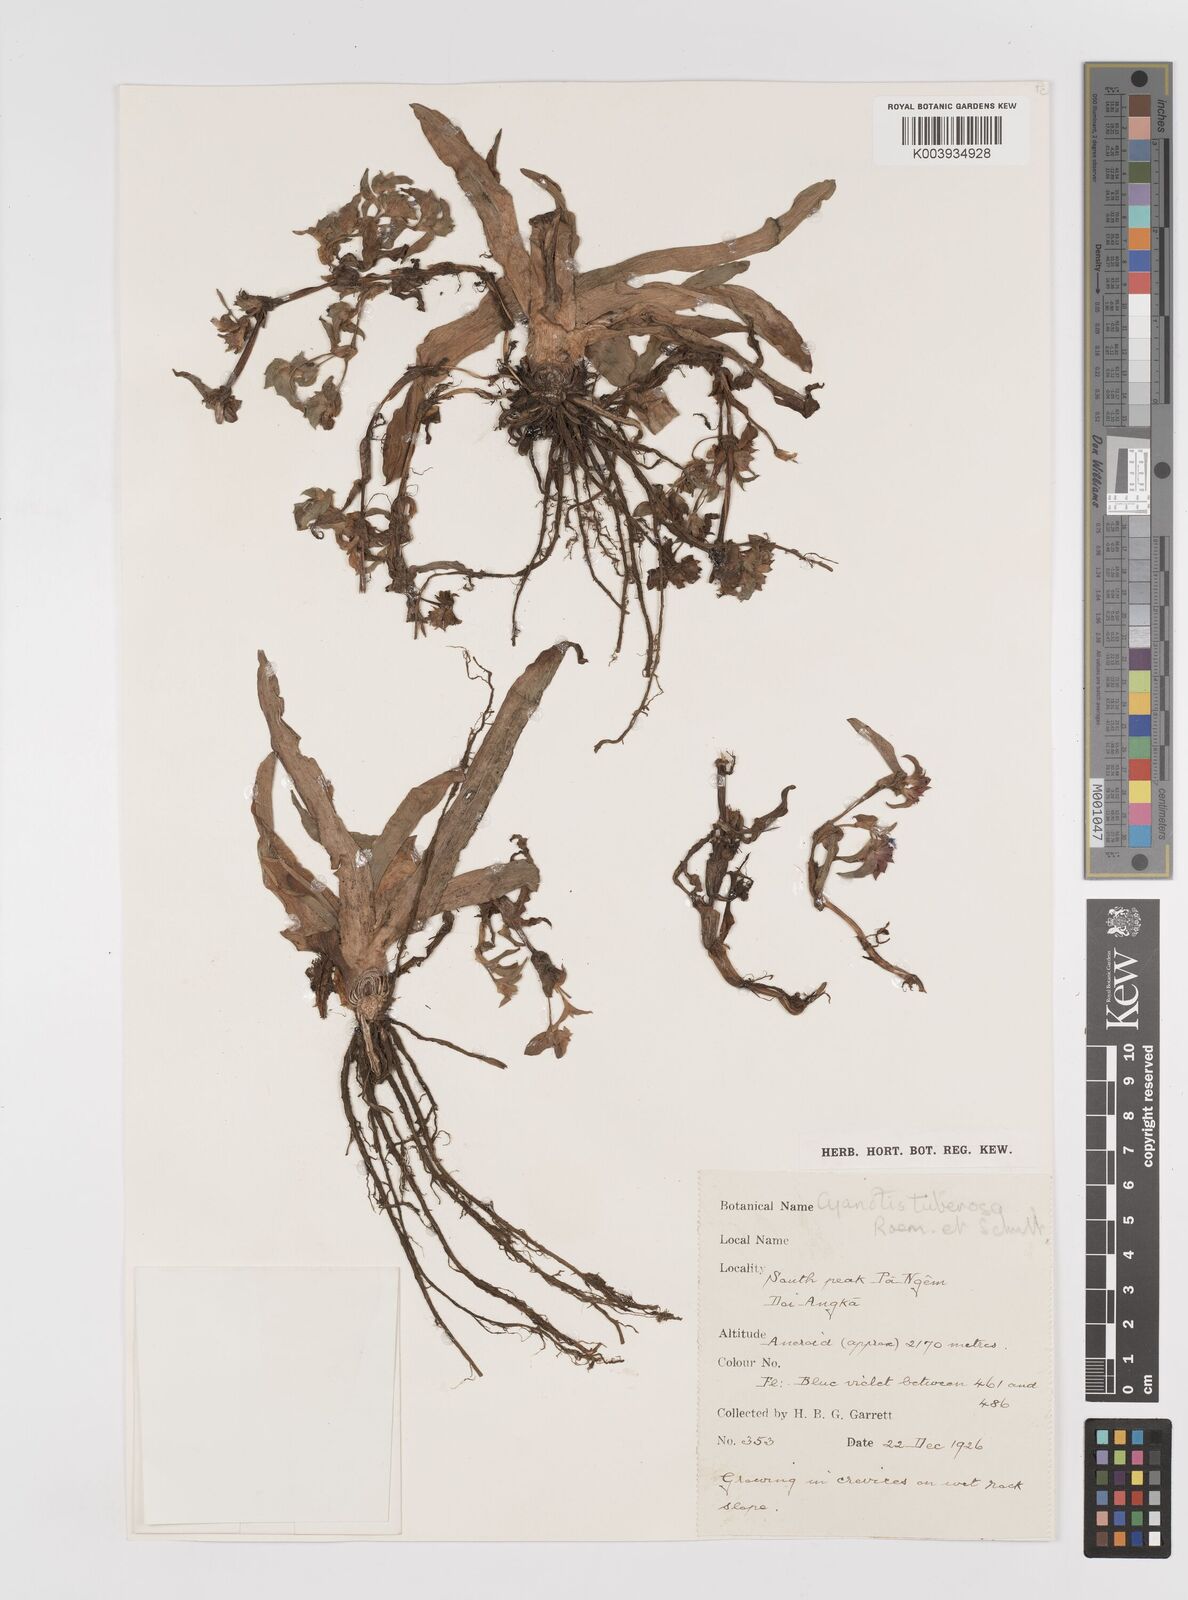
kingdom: Plantae
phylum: Tracheophyta
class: Liliopsida
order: Commelinales
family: Commelinaceae
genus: Cyanotis
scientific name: Cyanotis tuberosa
